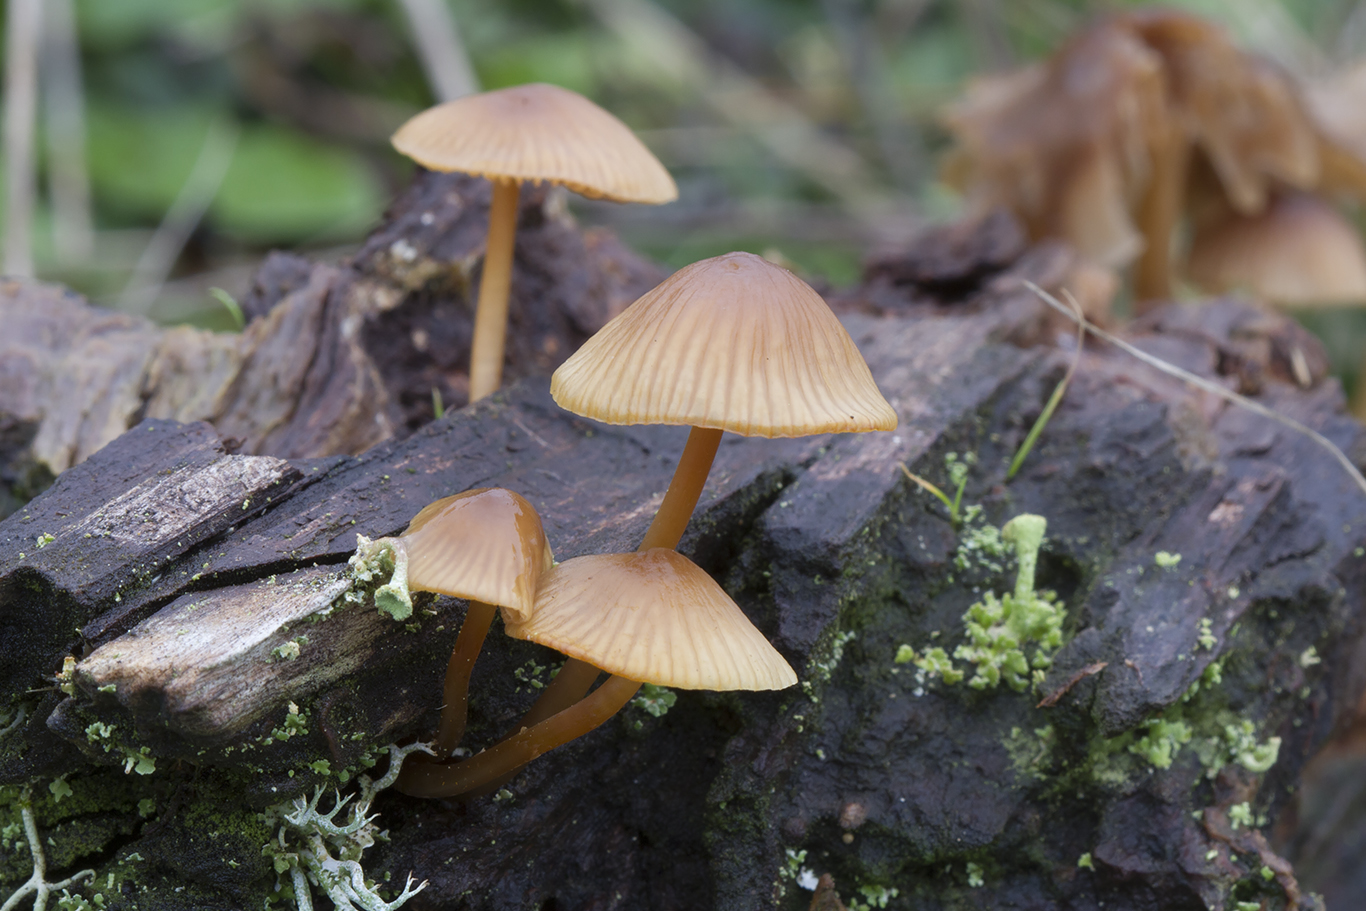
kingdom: Fungi
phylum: Basidiomycota
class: Agaricomycetes
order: Agaricales
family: Mycenaceae
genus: Mycena
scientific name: Mycena galericulata
